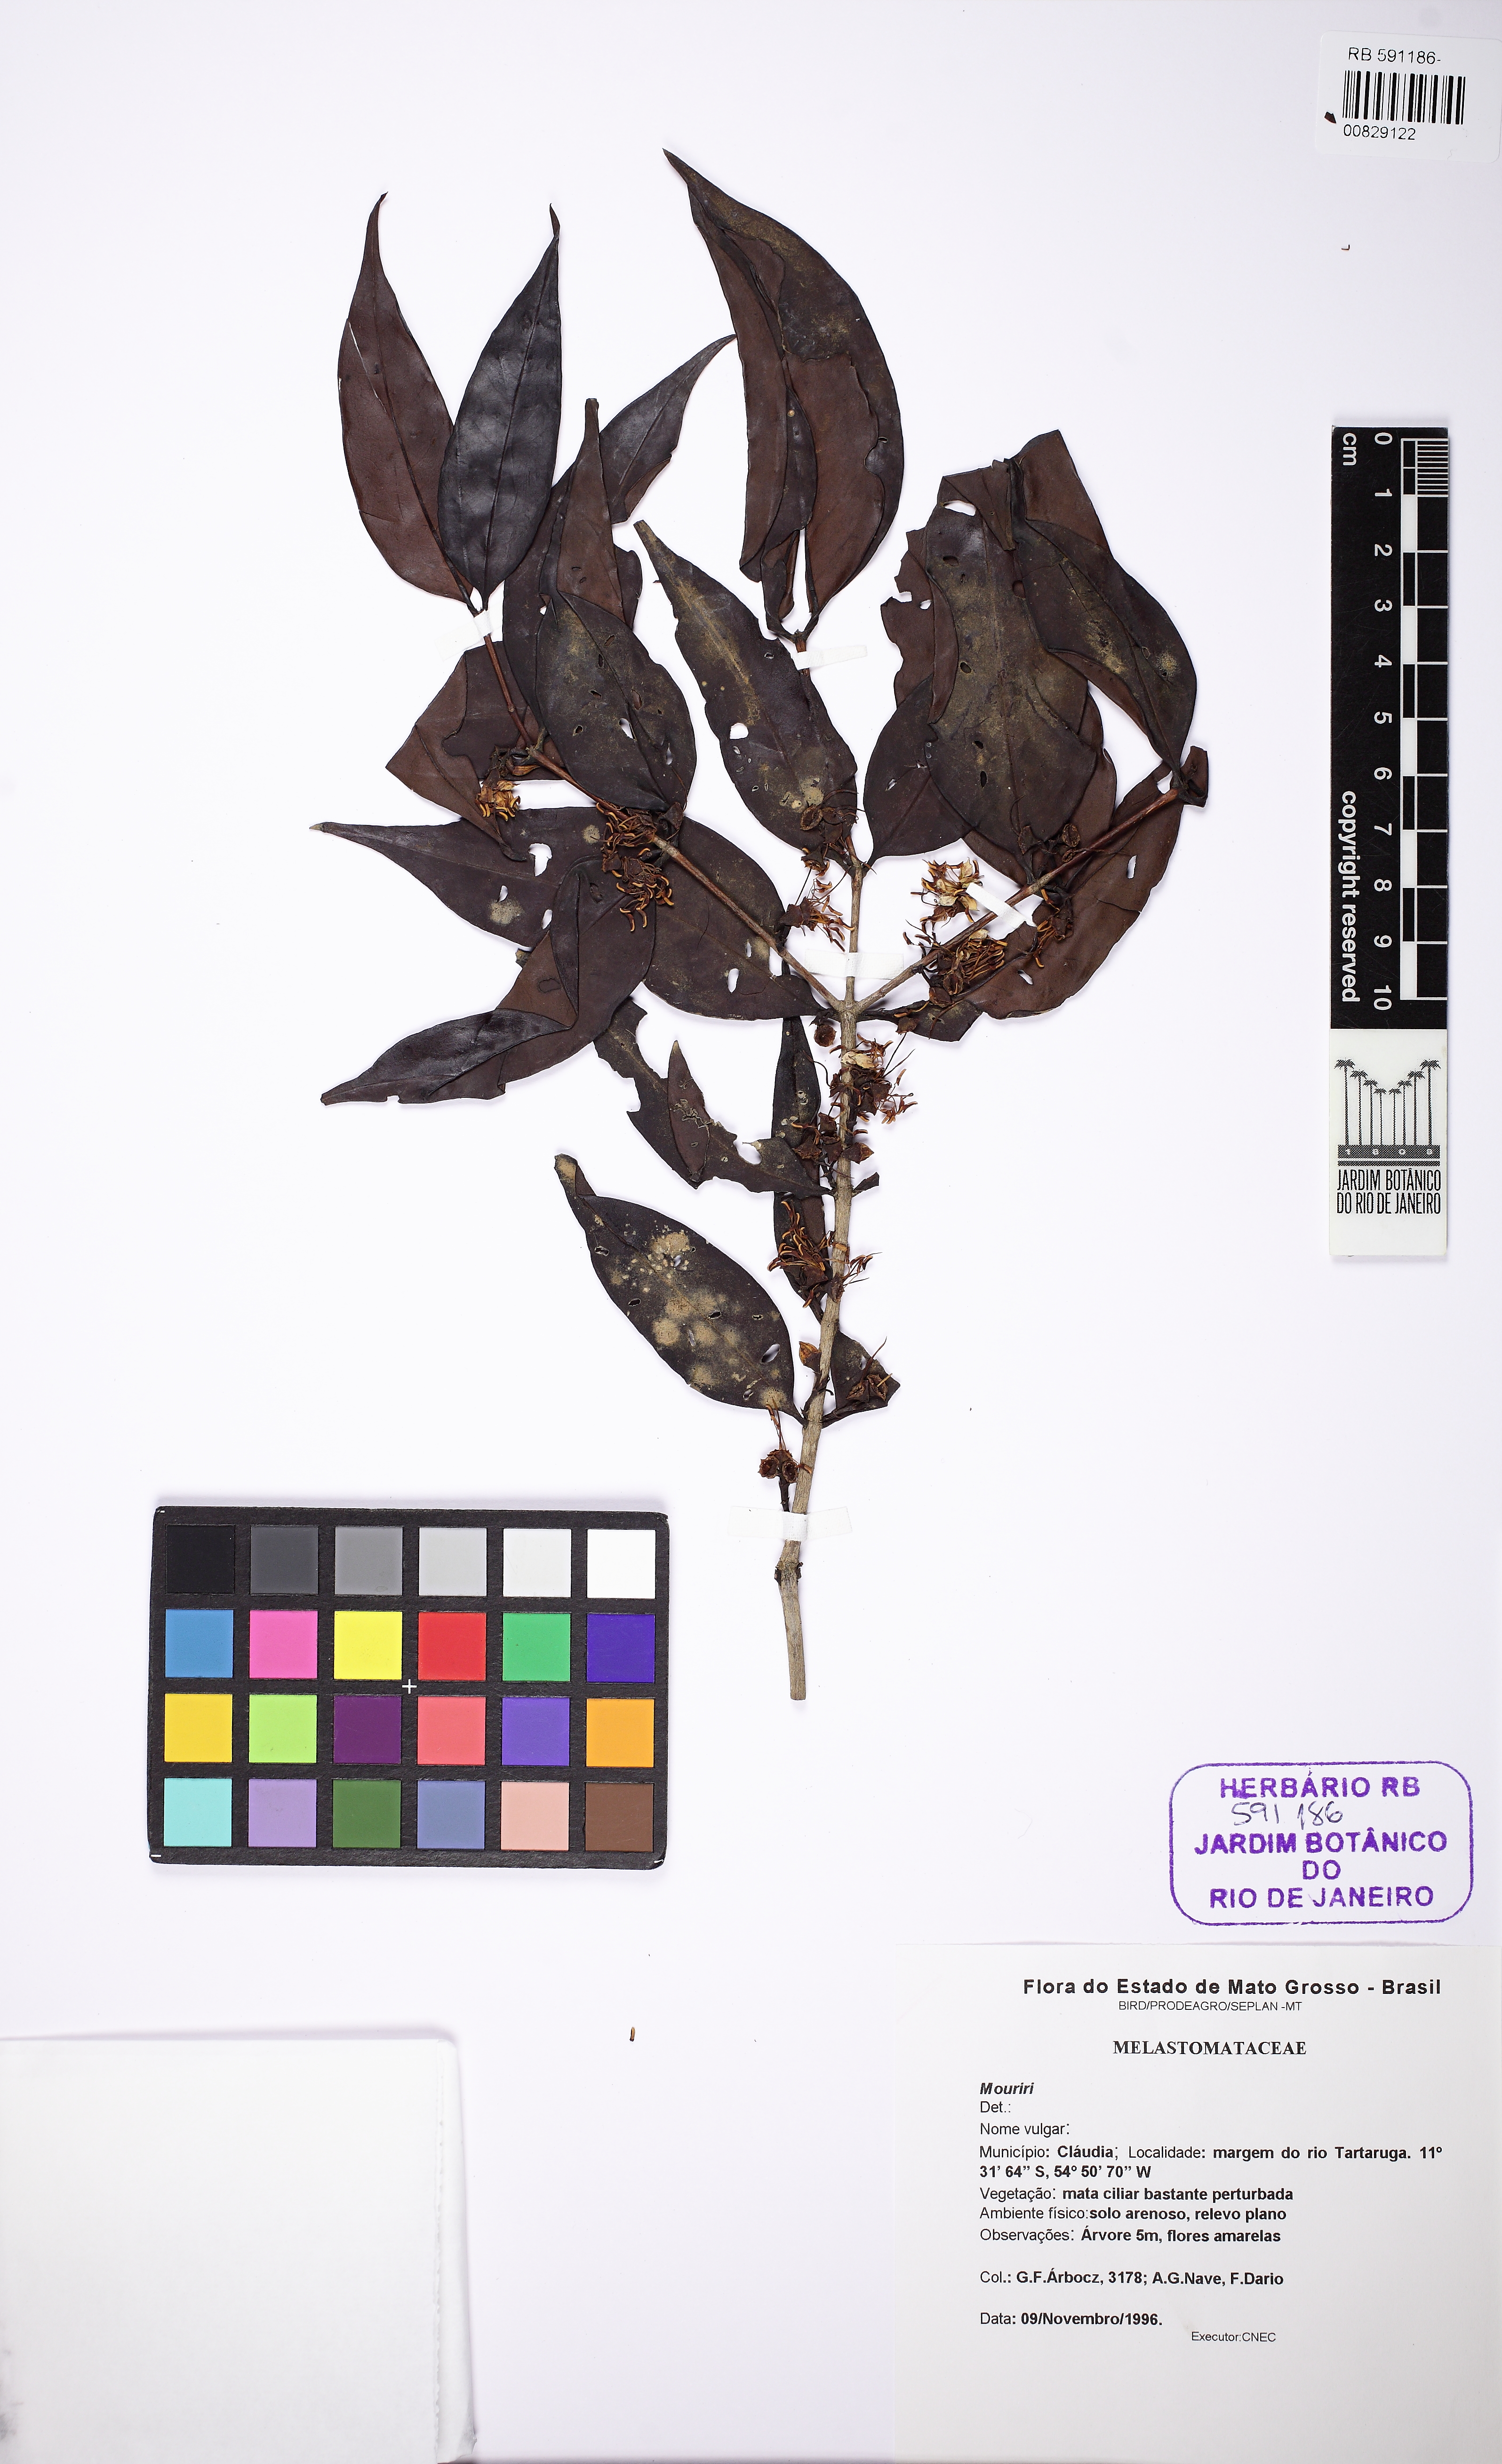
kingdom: Plantae
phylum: Tracheophyta
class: Magnoliopsida
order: Myrtales
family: Melastomataceae
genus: Mouriri
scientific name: Mouriri vernicosa
